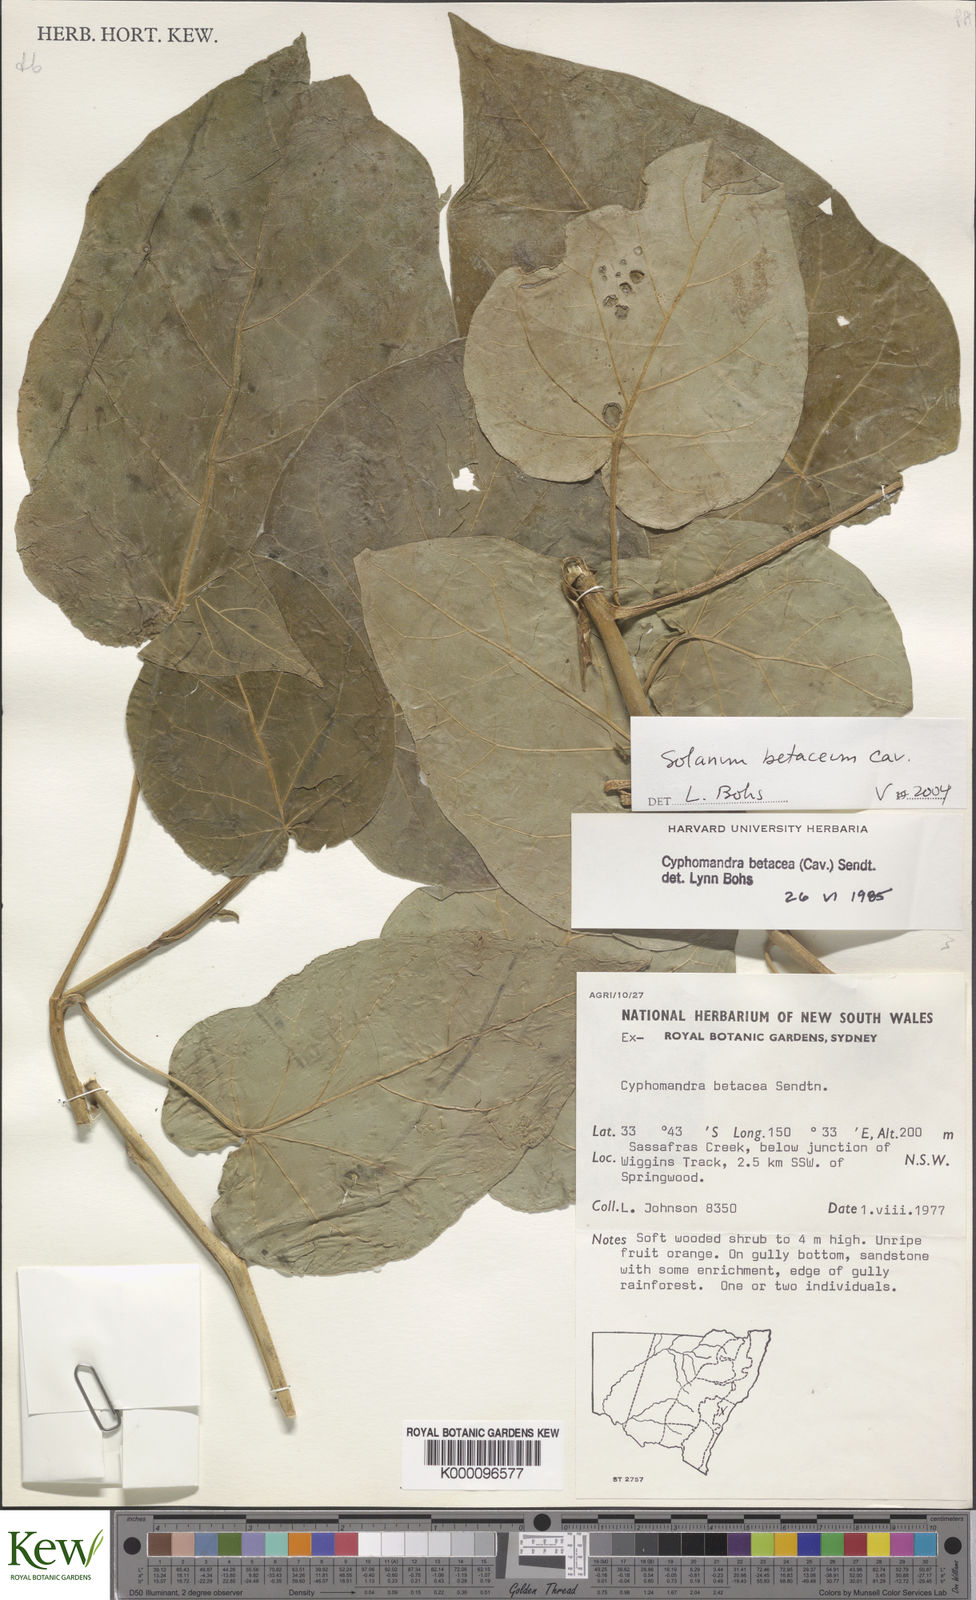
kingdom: Plantae
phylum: Tracheophyta
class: Magnoliopsida
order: Solanales
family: Solanaceae
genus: Solanum
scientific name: Solanum betaceum
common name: Tamarillo
